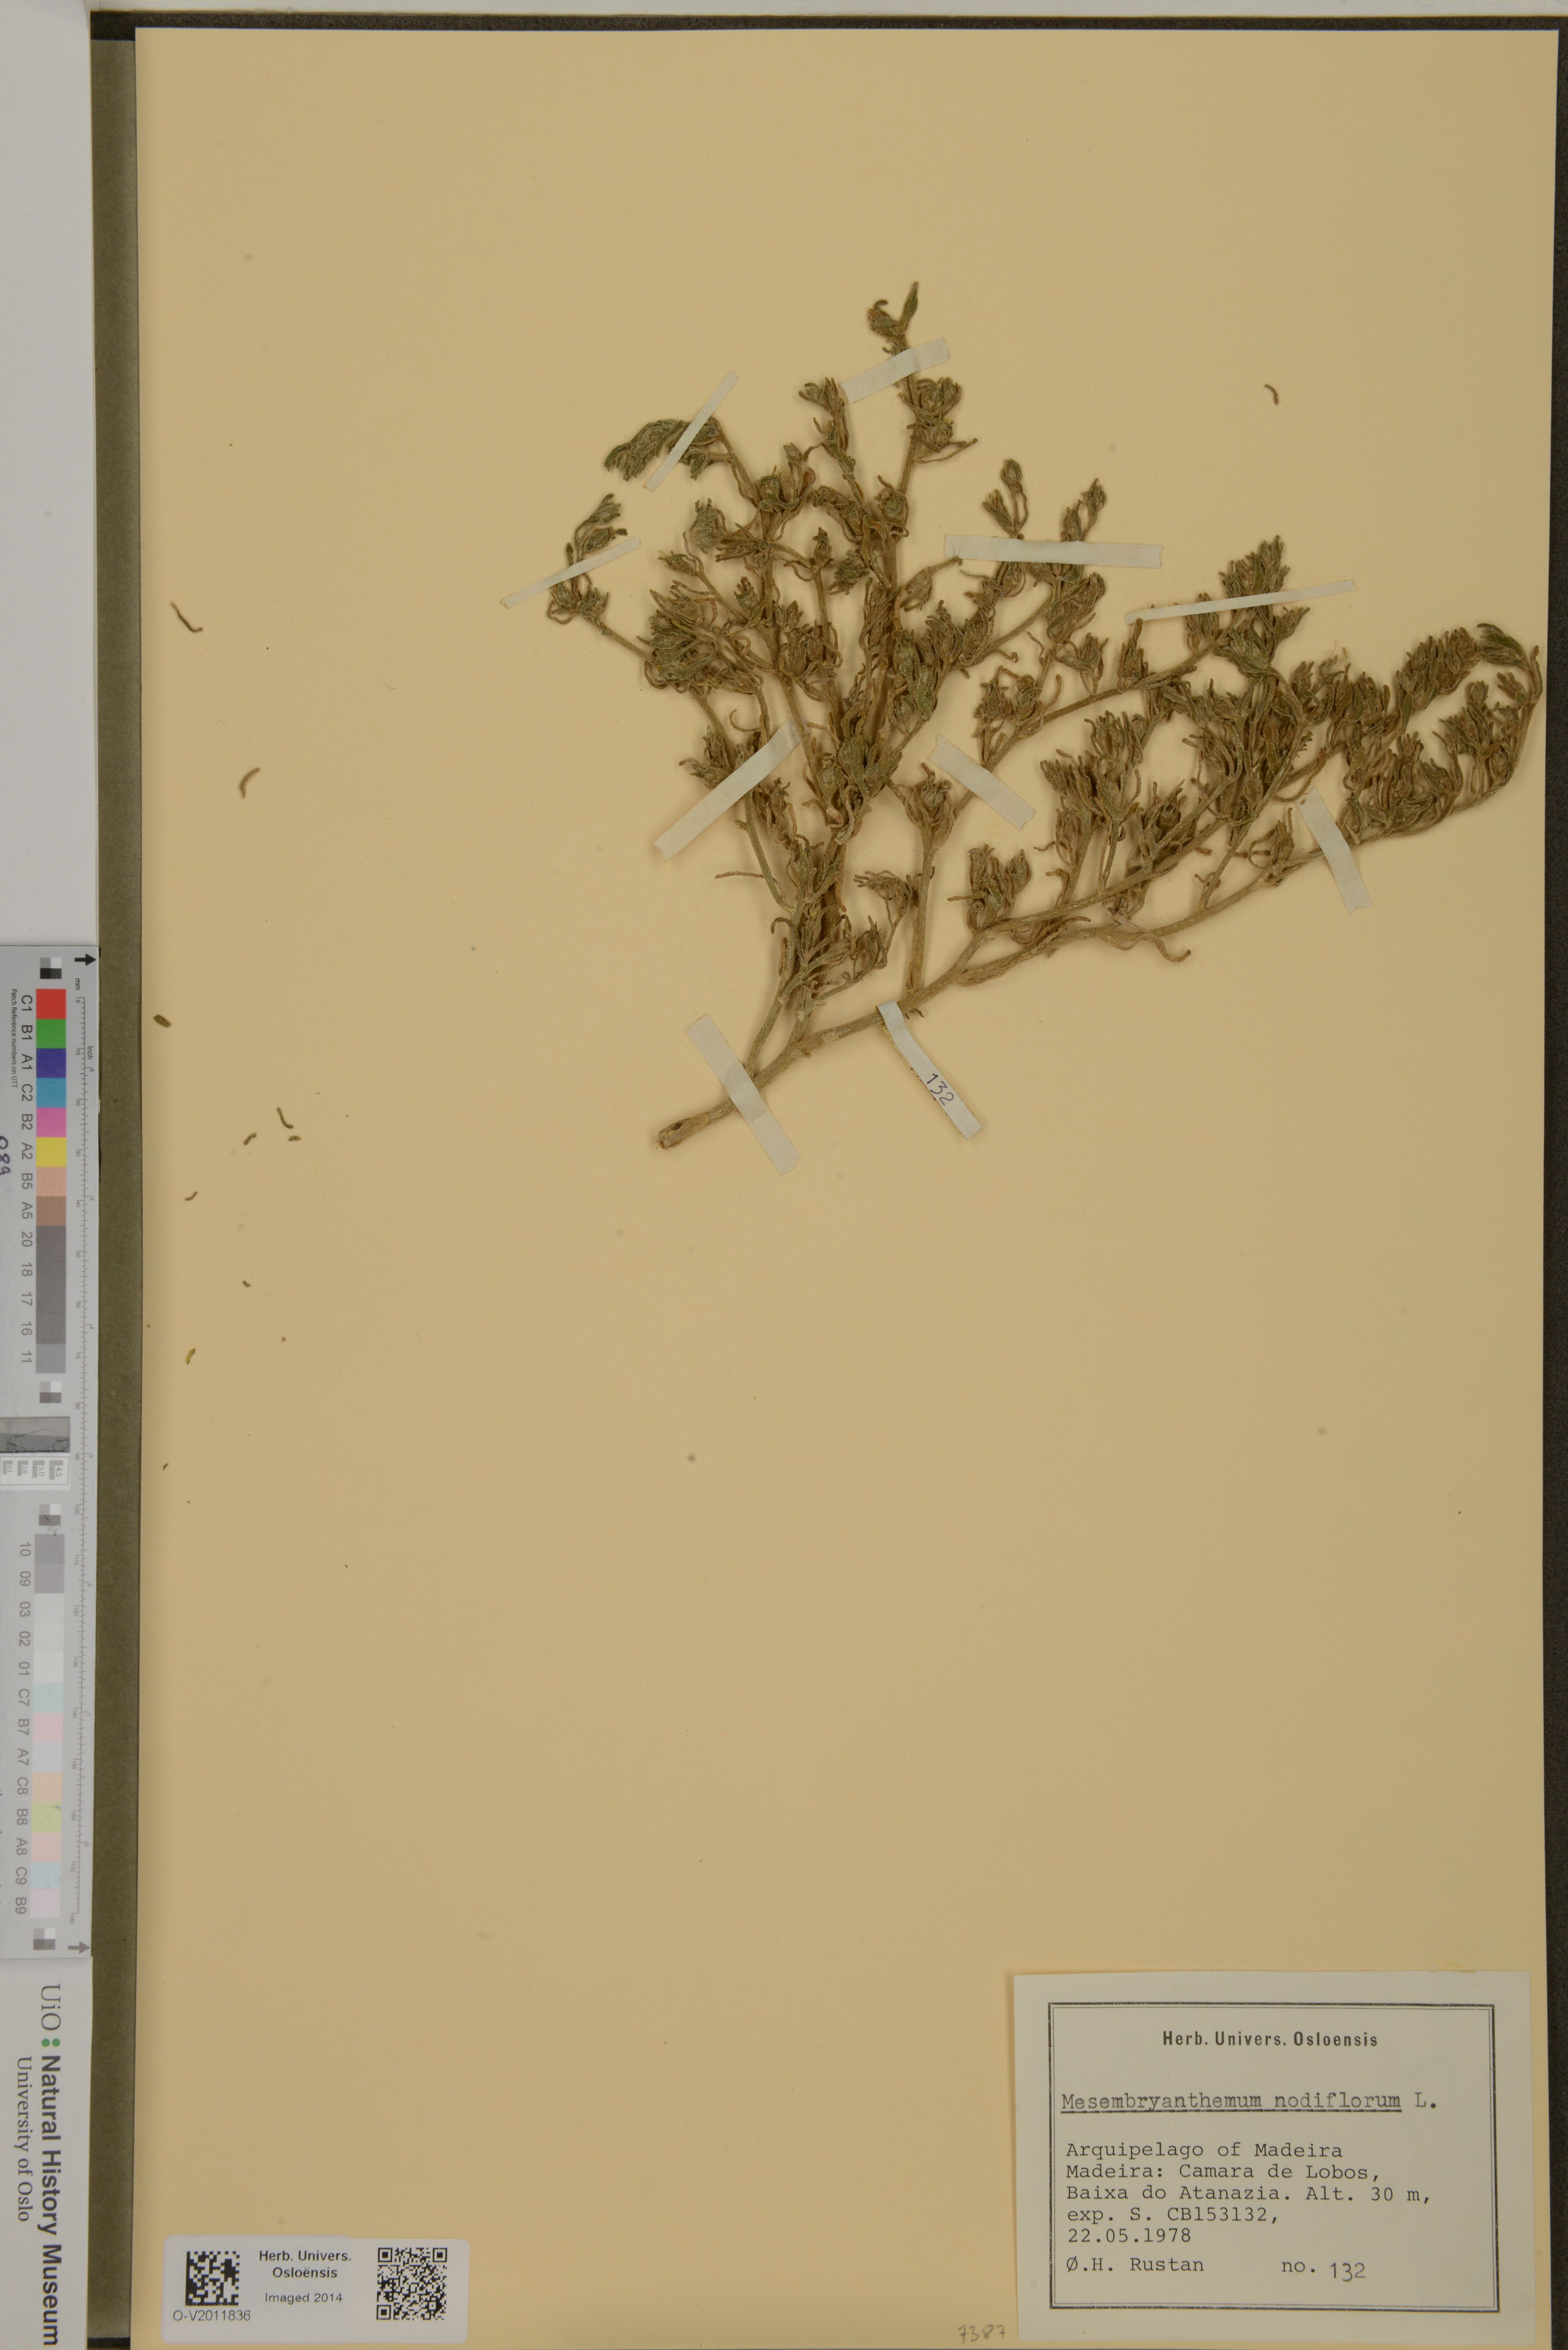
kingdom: Plantae
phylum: Tracheophyta
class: Magnoliopsida
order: Caryophyllales
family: Aizoaceae
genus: Mesembryanthemum
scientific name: Mesembryanthemum nodiflorum
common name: Slenderleaf iceplant
